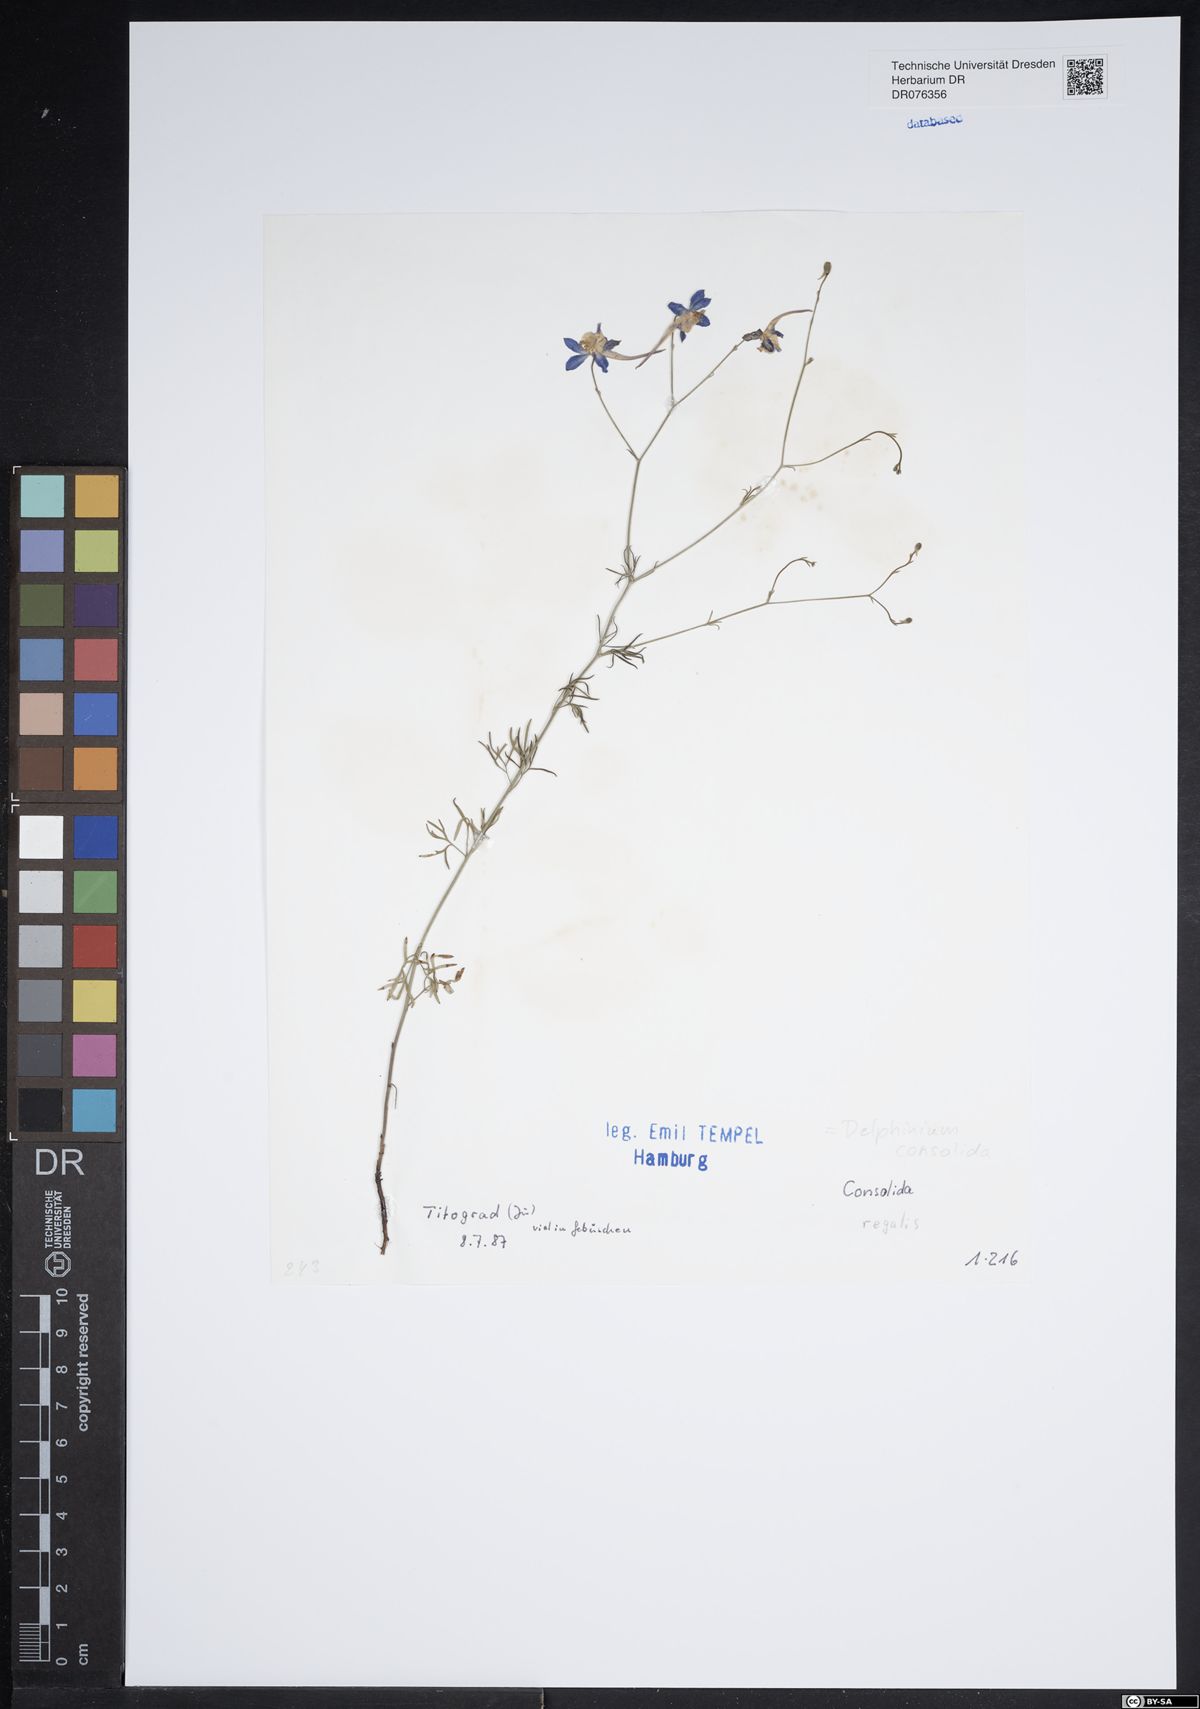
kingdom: Plantae
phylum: Tracheophyta
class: Magnoliopsida
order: Ranunculales
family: Ranunculaceae
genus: Delphinium
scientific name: Delphinium consolida
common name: Branching larkspur
